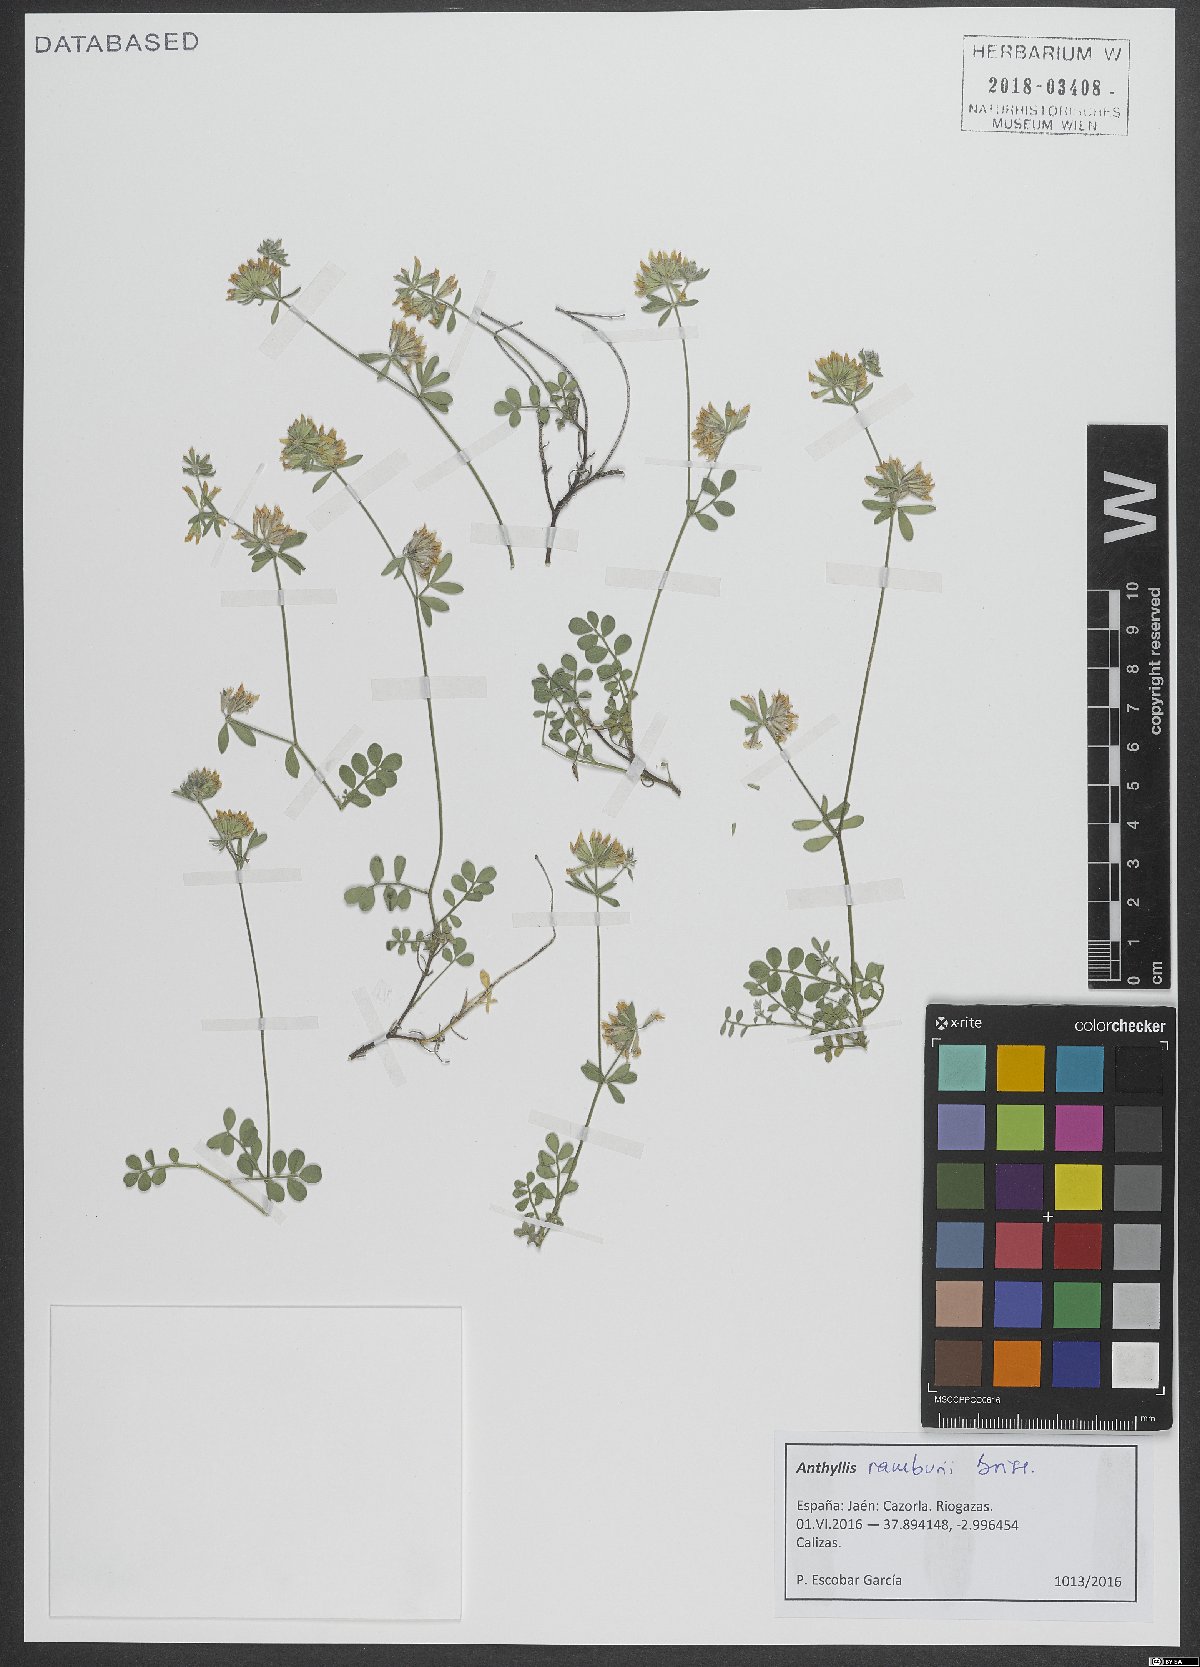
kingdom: Plantae
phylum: Tracheophyta
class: Magnoliopsida
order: Fabales
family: Fabaceae
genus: Anthyllis
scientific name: Anthyllis ramburei
